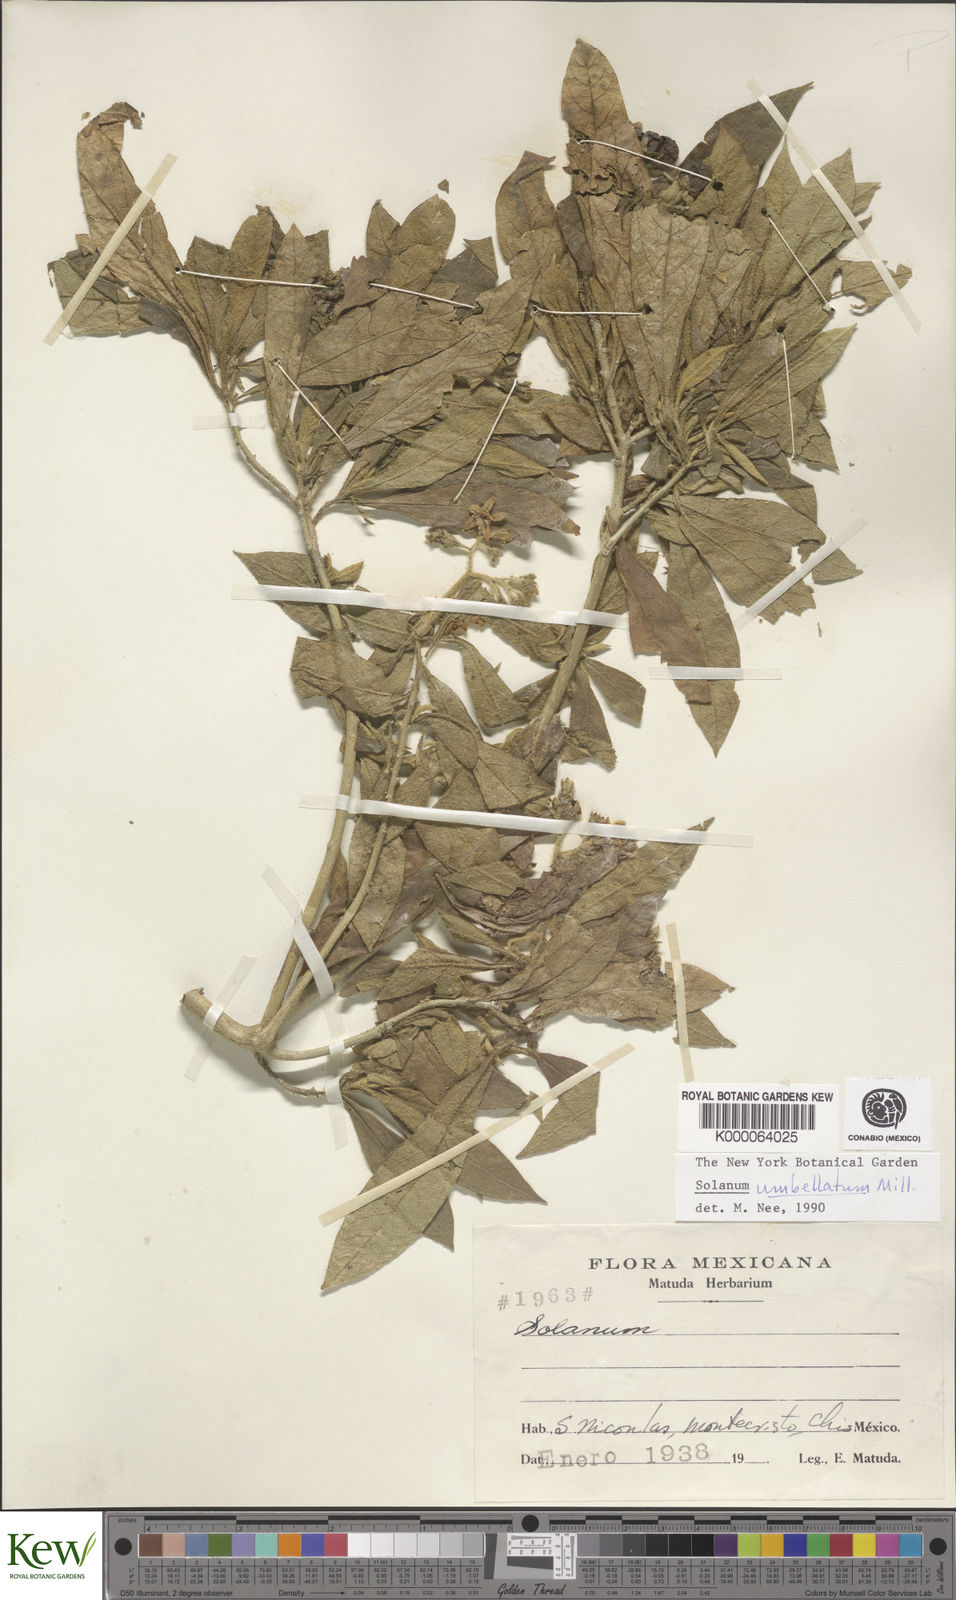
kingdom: Plantae
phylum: Tracheophyta
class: Magnoliopsida
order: Solanales
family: Solanaceae
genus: Solanum
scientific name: Solanum umbellatum
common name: Nightshade
